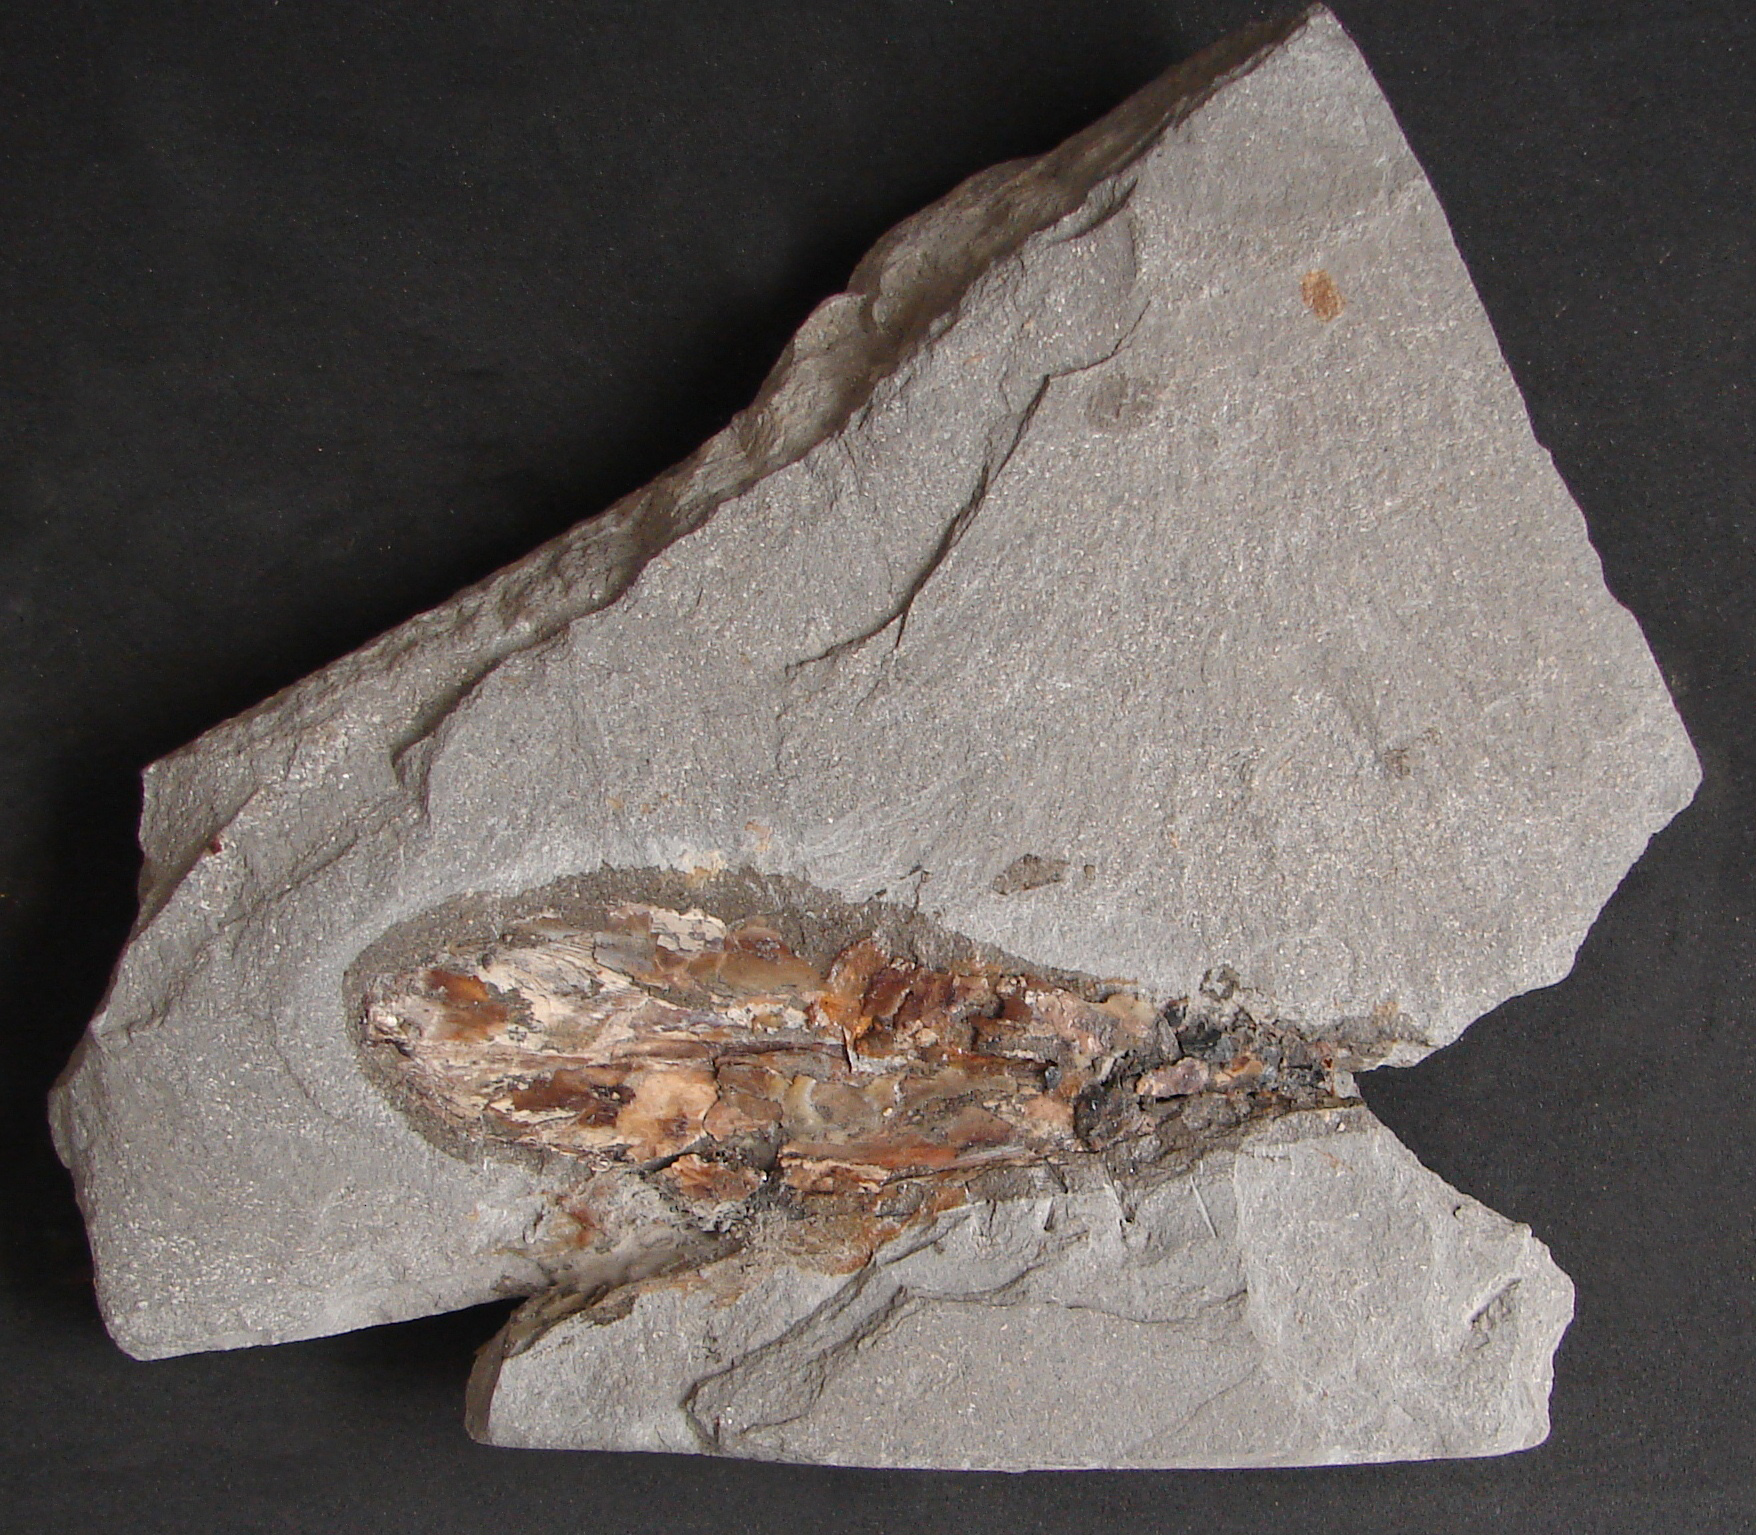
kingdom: Animalia
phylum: Mollusca
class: Cephalopoda
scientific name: Cephalopoda
